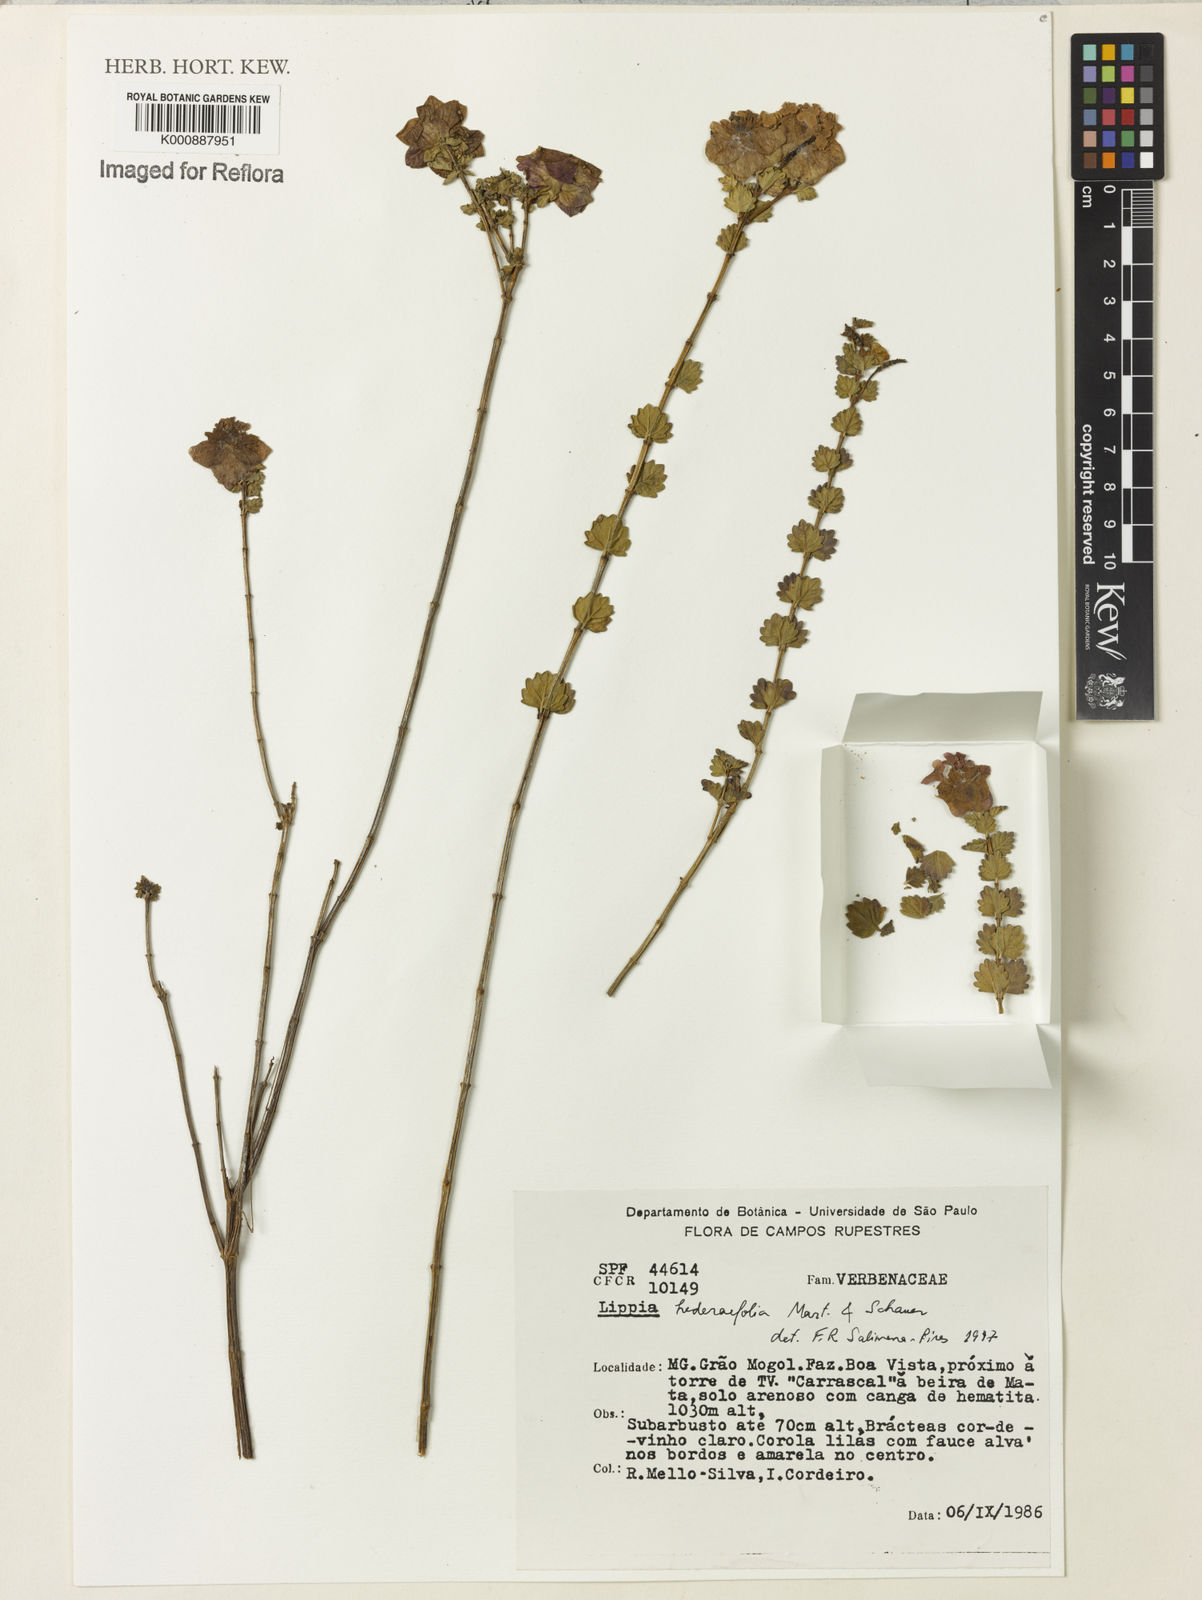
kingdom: Plantae
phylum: Tracheophyta
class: Magnoliopsida
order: Lamiales
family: Verbenaceae
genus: Lippia
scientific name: Lippia hederifolia
